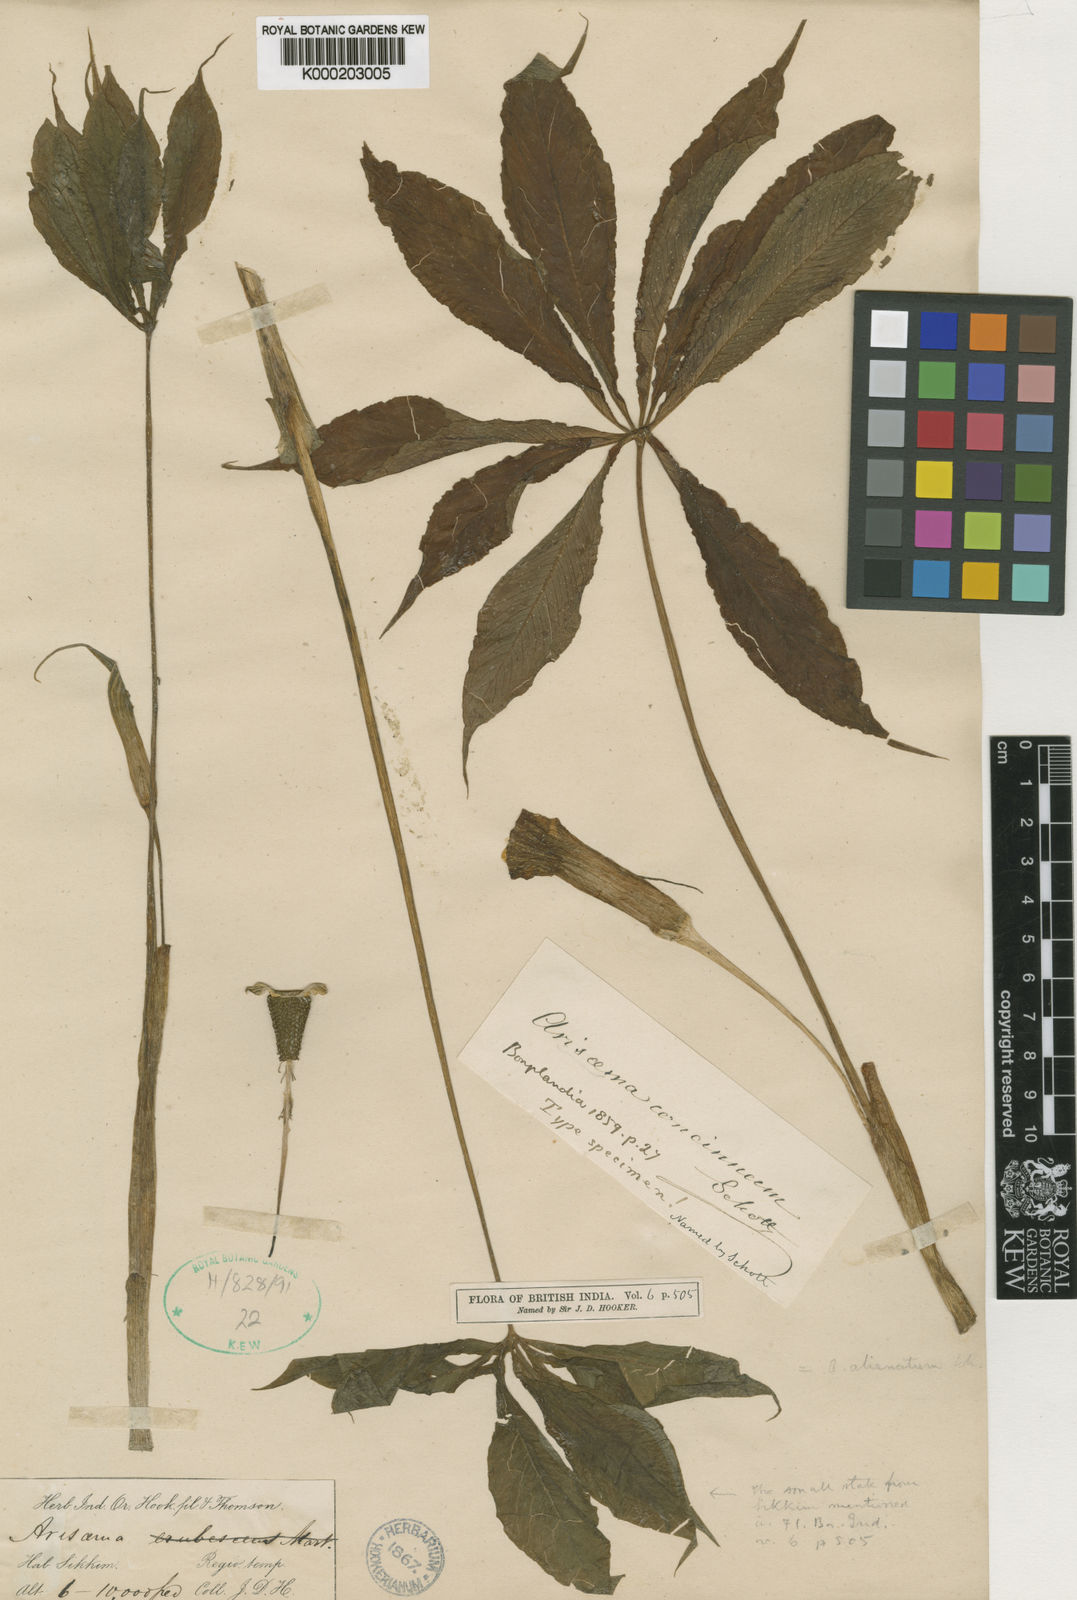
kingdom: Plantae
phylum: Tracheophyta
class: Liliopsida
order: Alismatales
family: Araceae
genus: Arisaema
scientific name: Arisaema concinnum
